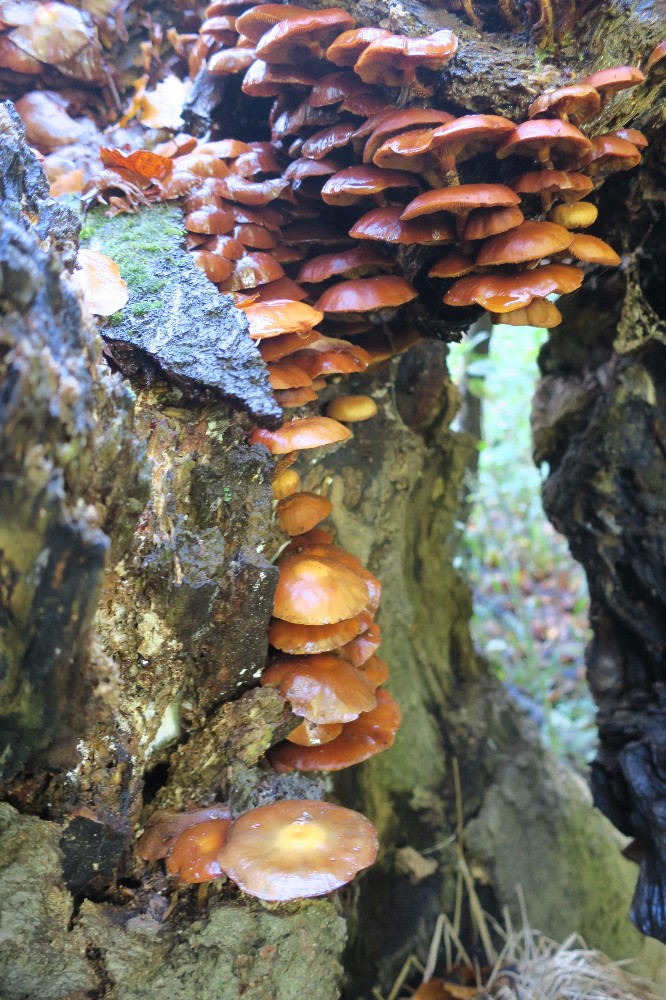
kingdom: Fungi
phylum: Basidiomycota
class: Agaricomycetes
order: Agaricales
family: Strophariaceae
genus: Kuehneromyces
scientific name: Kuehneromyces mutabilis
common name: foranderlig skælhat
